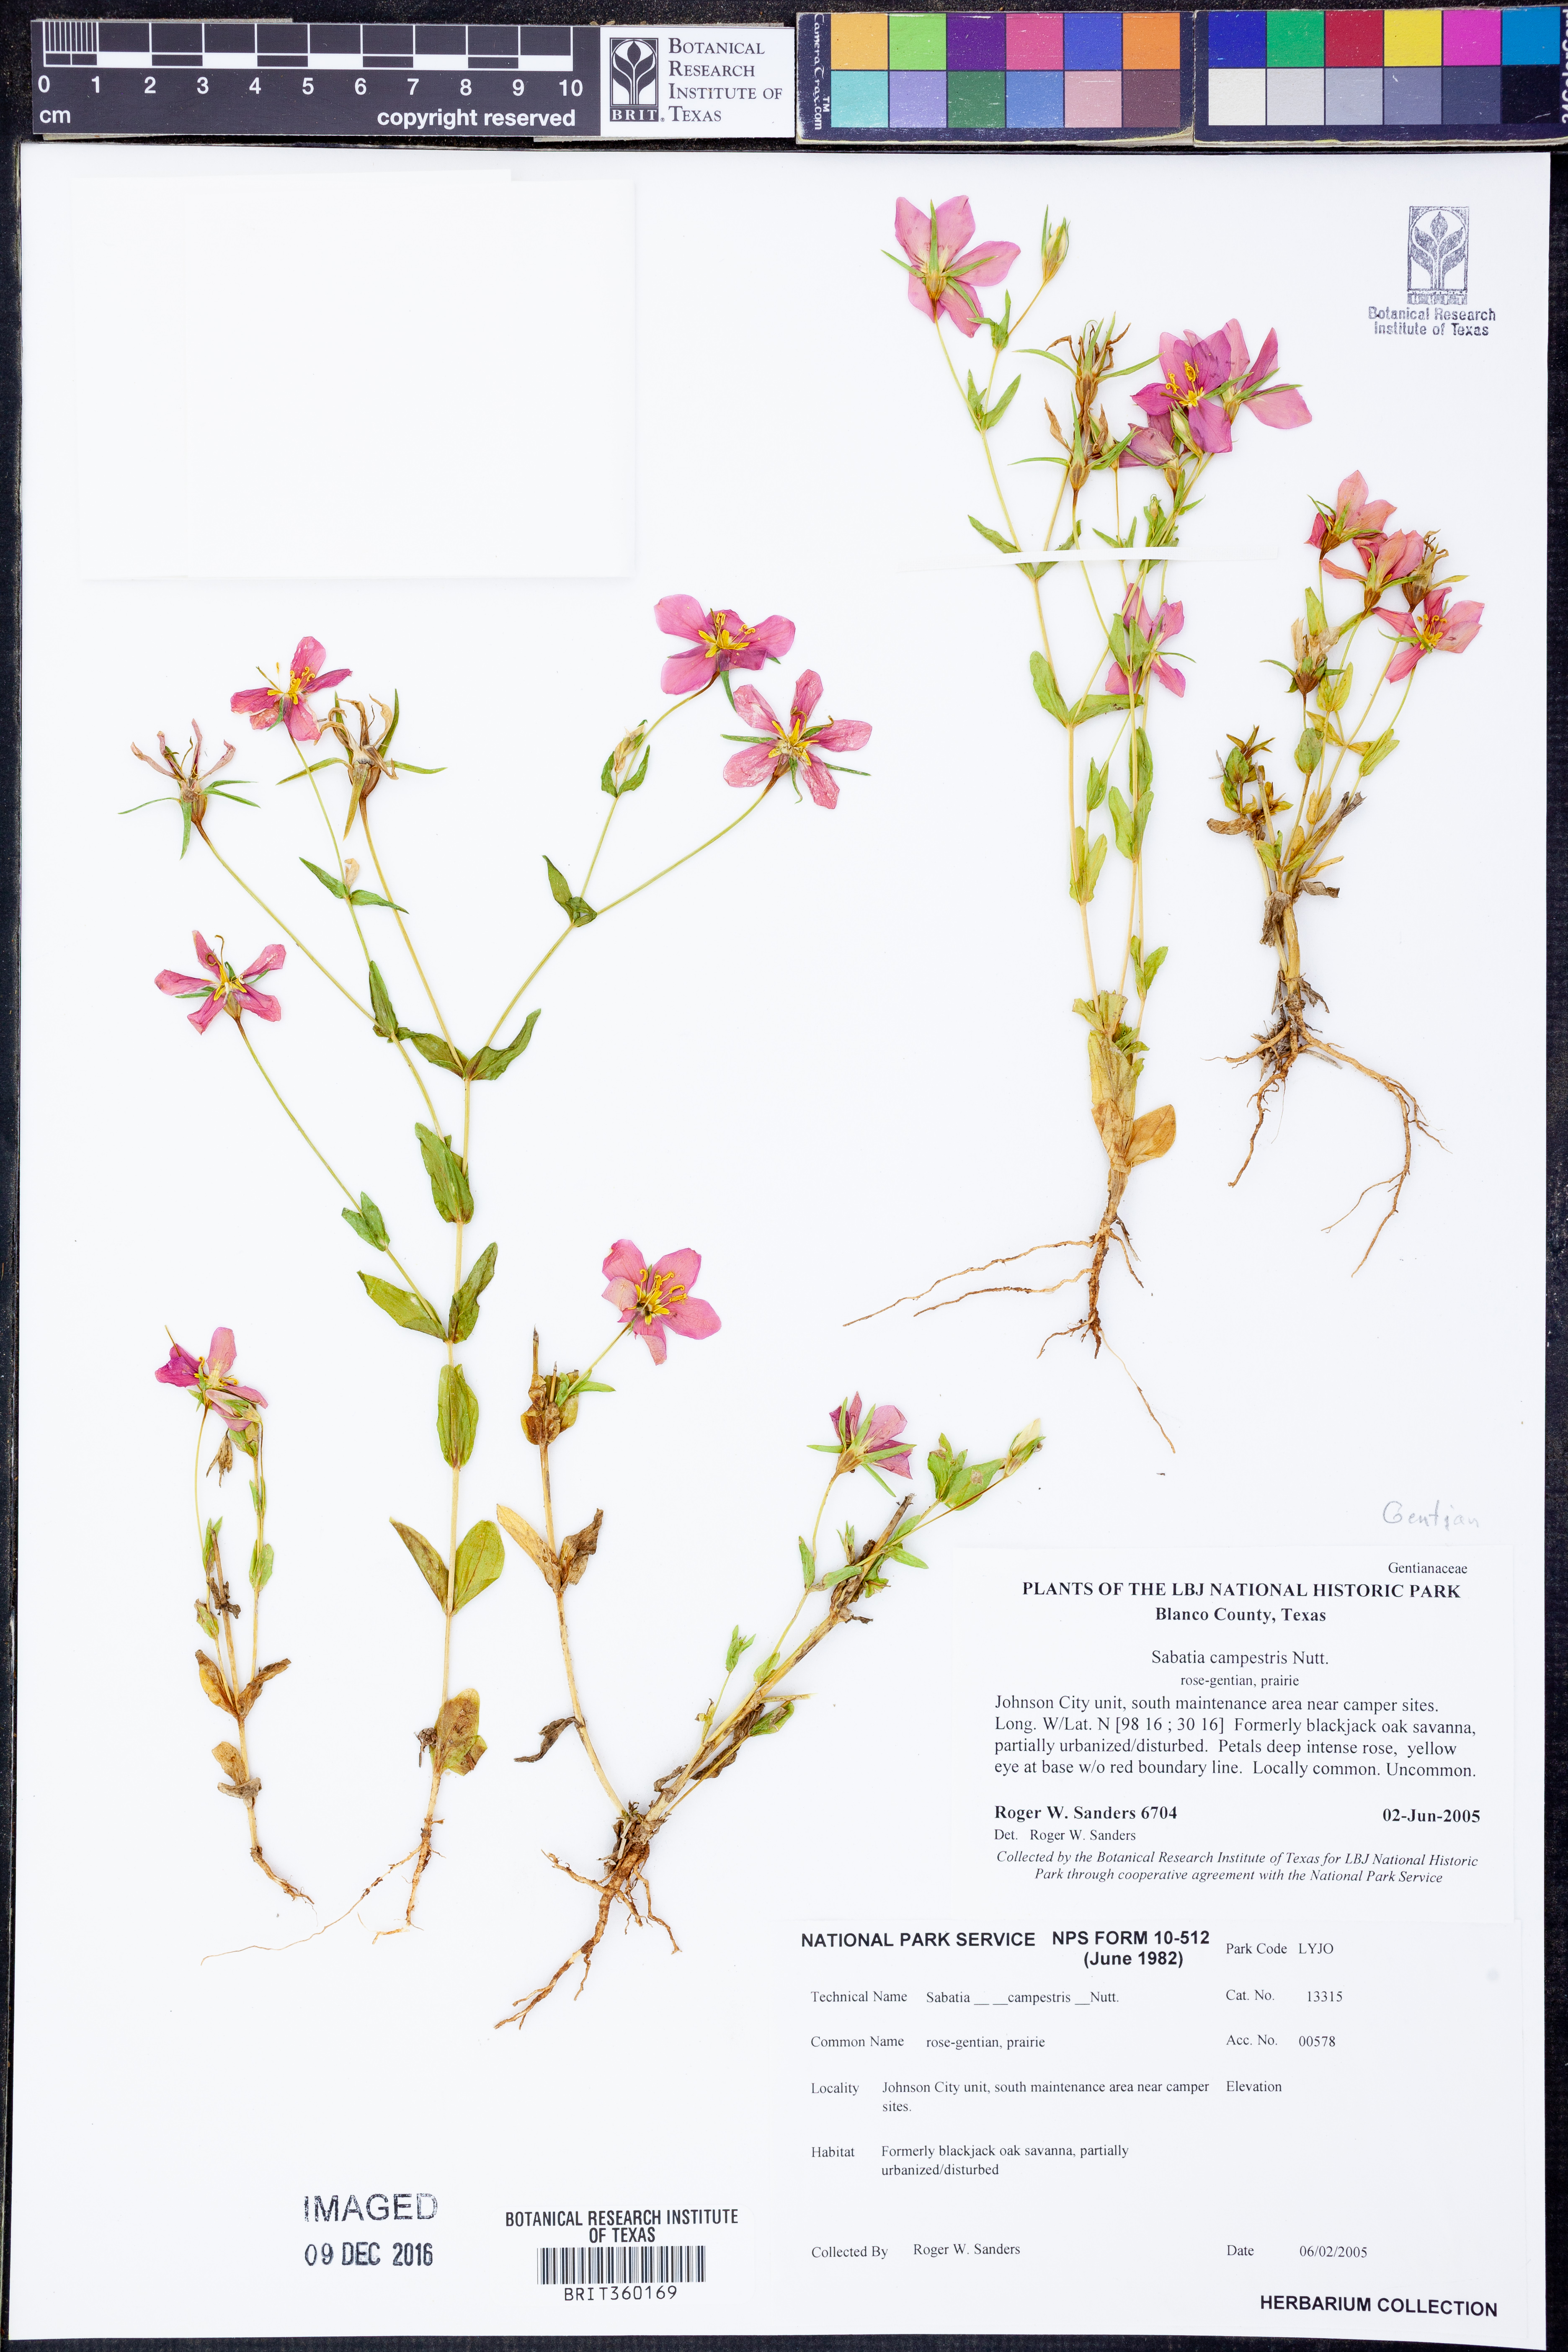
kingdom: Plantae
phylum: Tracheophyta
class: Magnoliopsida
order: Gentianales
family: Gentianaceae
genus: Sabatia
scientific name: Sabatia campestris
